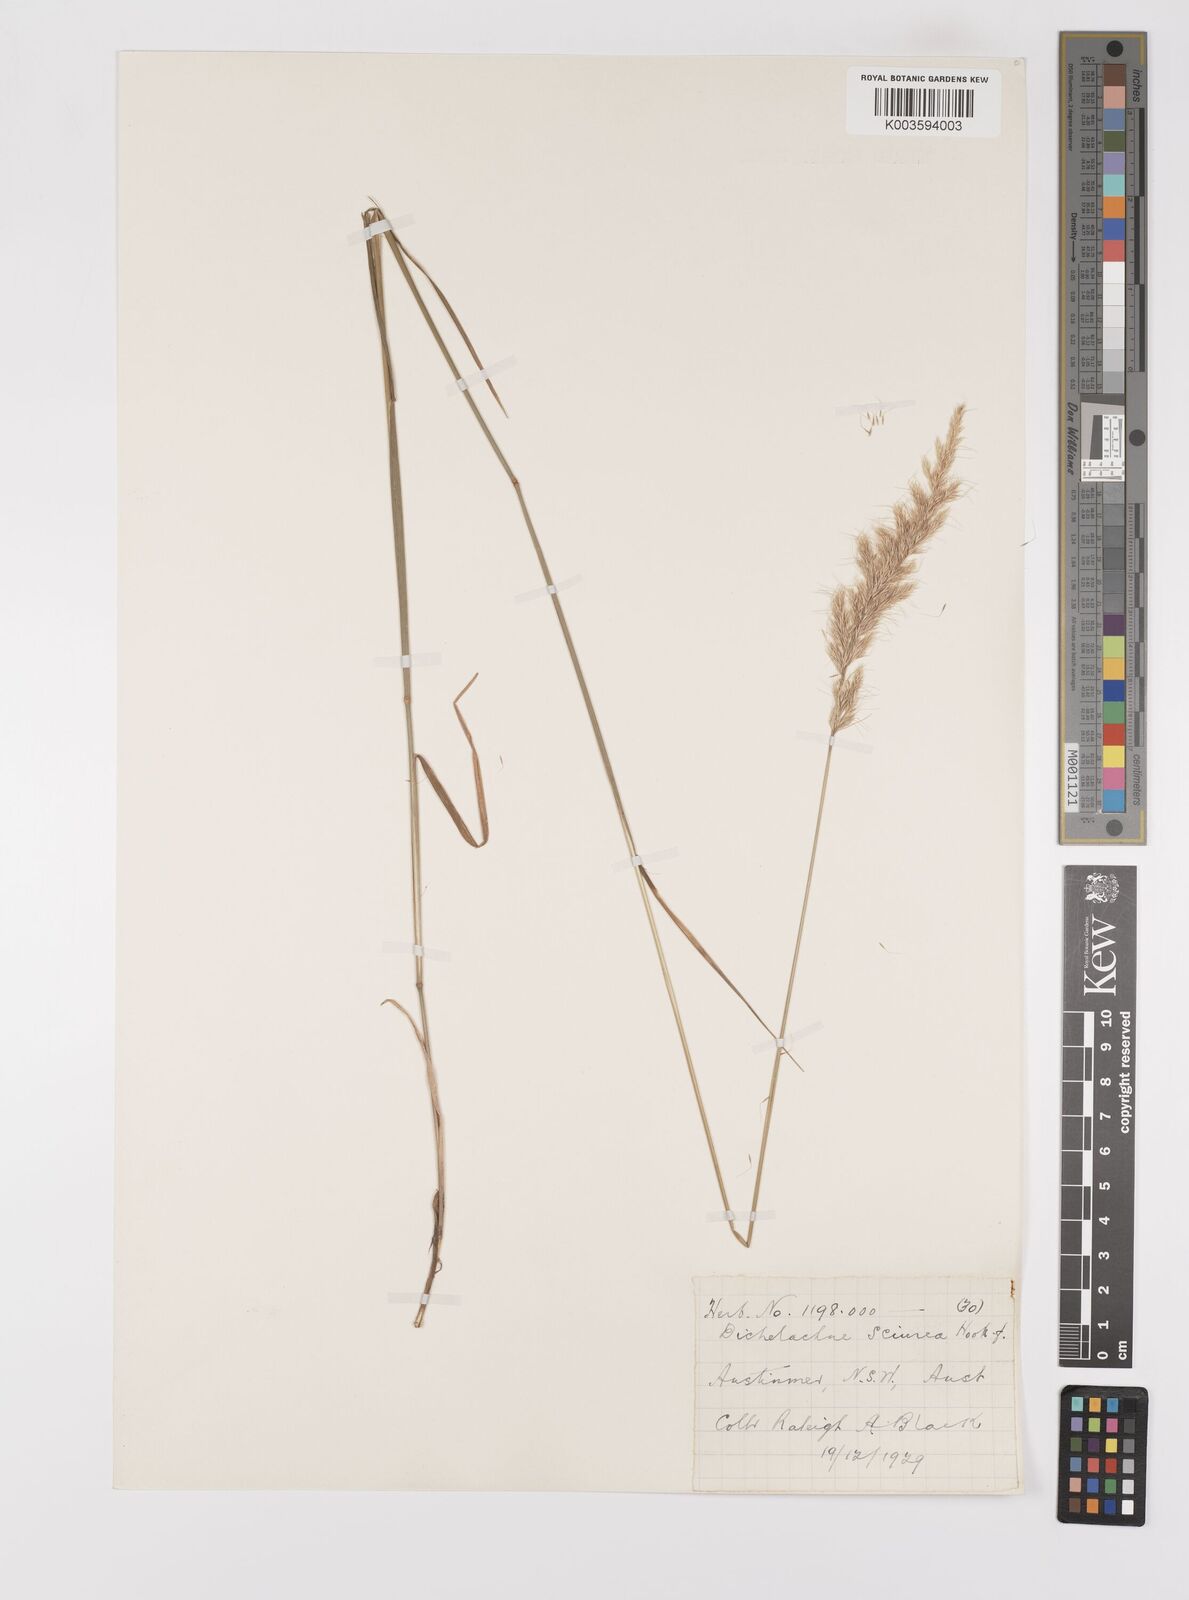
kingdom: Plantae
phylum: Tracheophyta
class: Liliopsida
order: Poales
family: Poaceae
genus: Dichelachne
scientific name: Dichelachne micrantha
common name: Plumegrass
